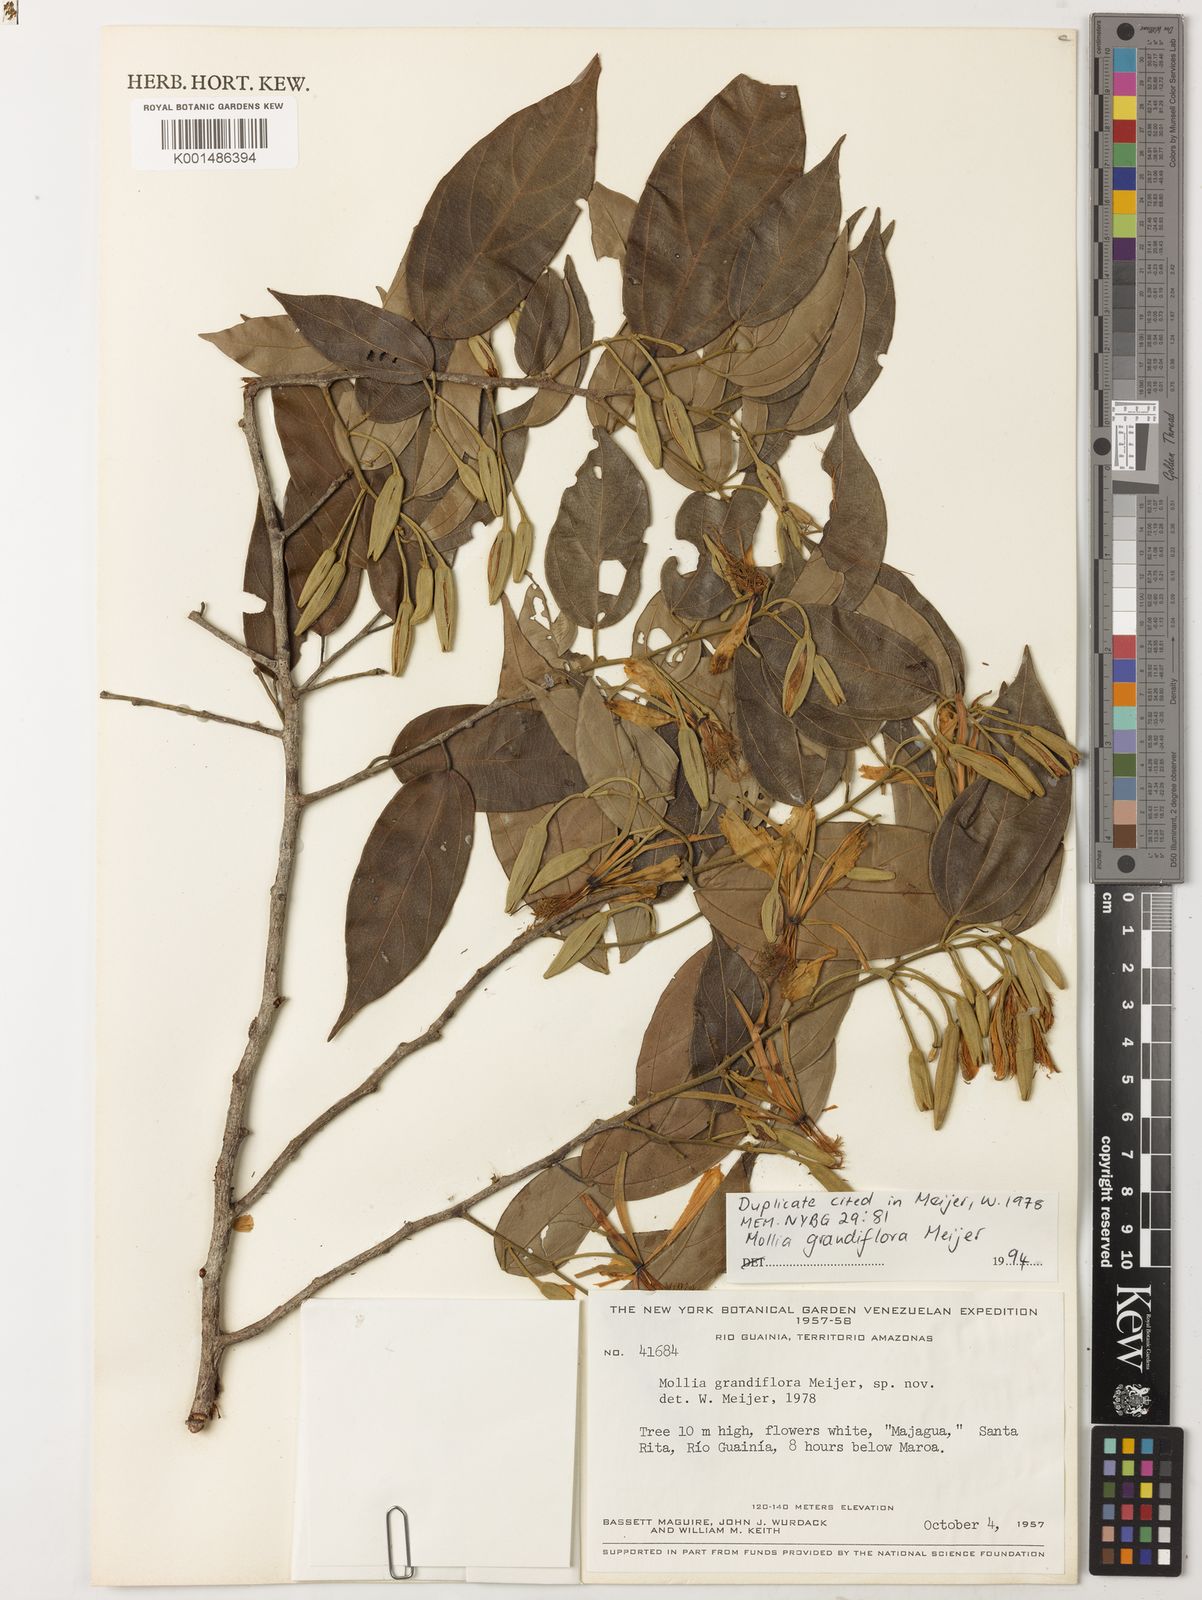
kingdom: Plantae
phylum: Tracheophyta
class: Magnoliopsida
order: Malvales
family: Malvaceae
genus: Mollia
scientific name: Mollia grandiflora
